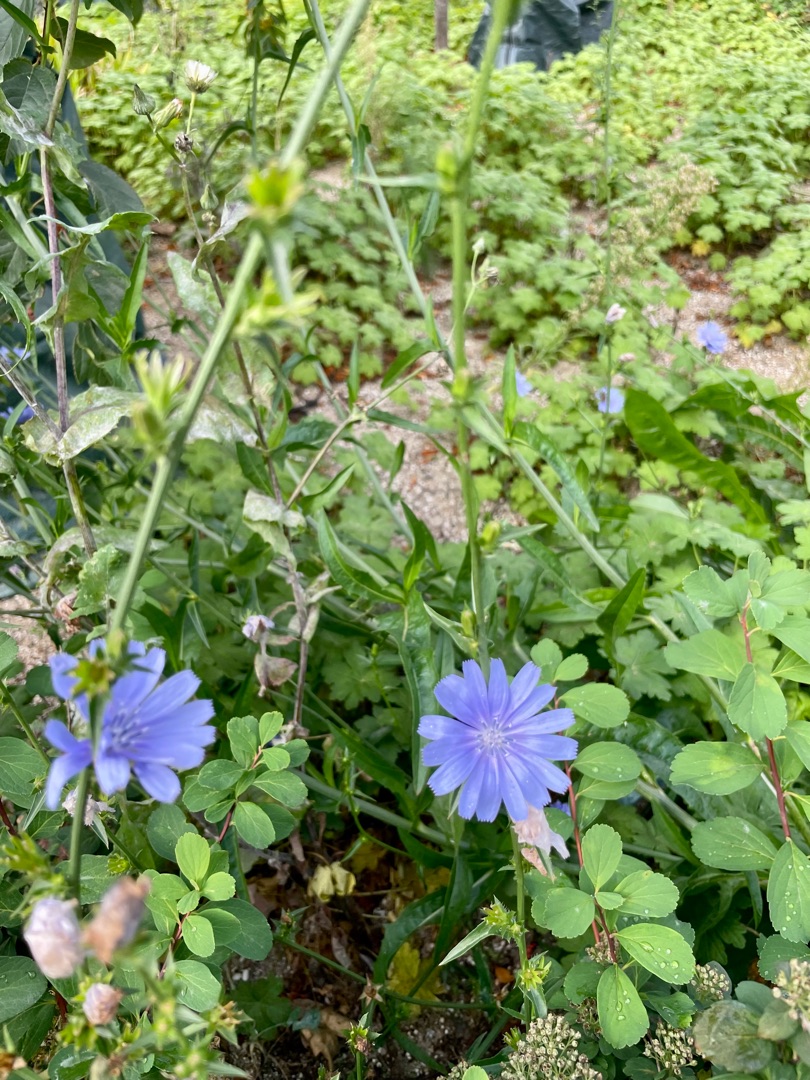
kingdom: Plantae
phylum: Tracheophyta
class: Magnoliopsida
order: Asterales
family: Asteraceae
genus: Cichorium
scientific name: Cichorium intybus
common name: Cikorie
